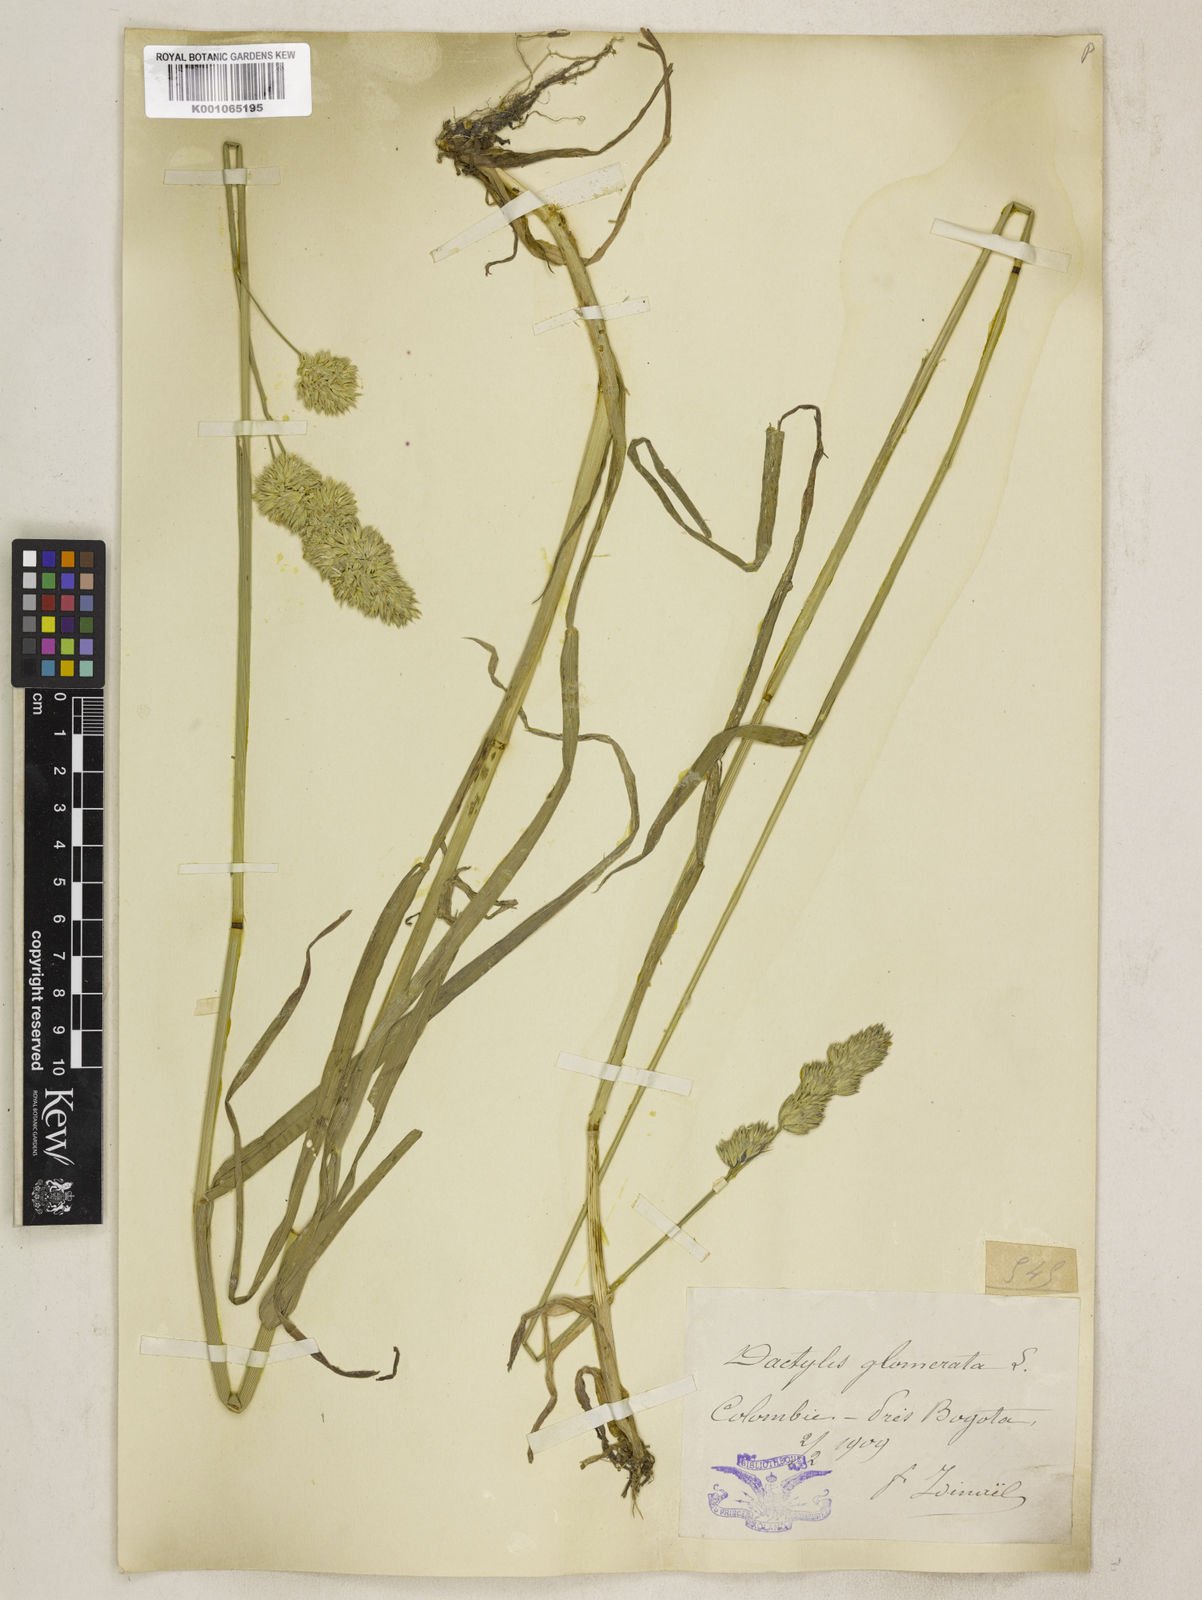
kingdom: Plantae
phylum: Tracheophyta
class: Liliopsida
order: Poales
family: Poaceae
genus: Dactylis
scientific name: Dactylis glomerata
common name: Orchardgrass
